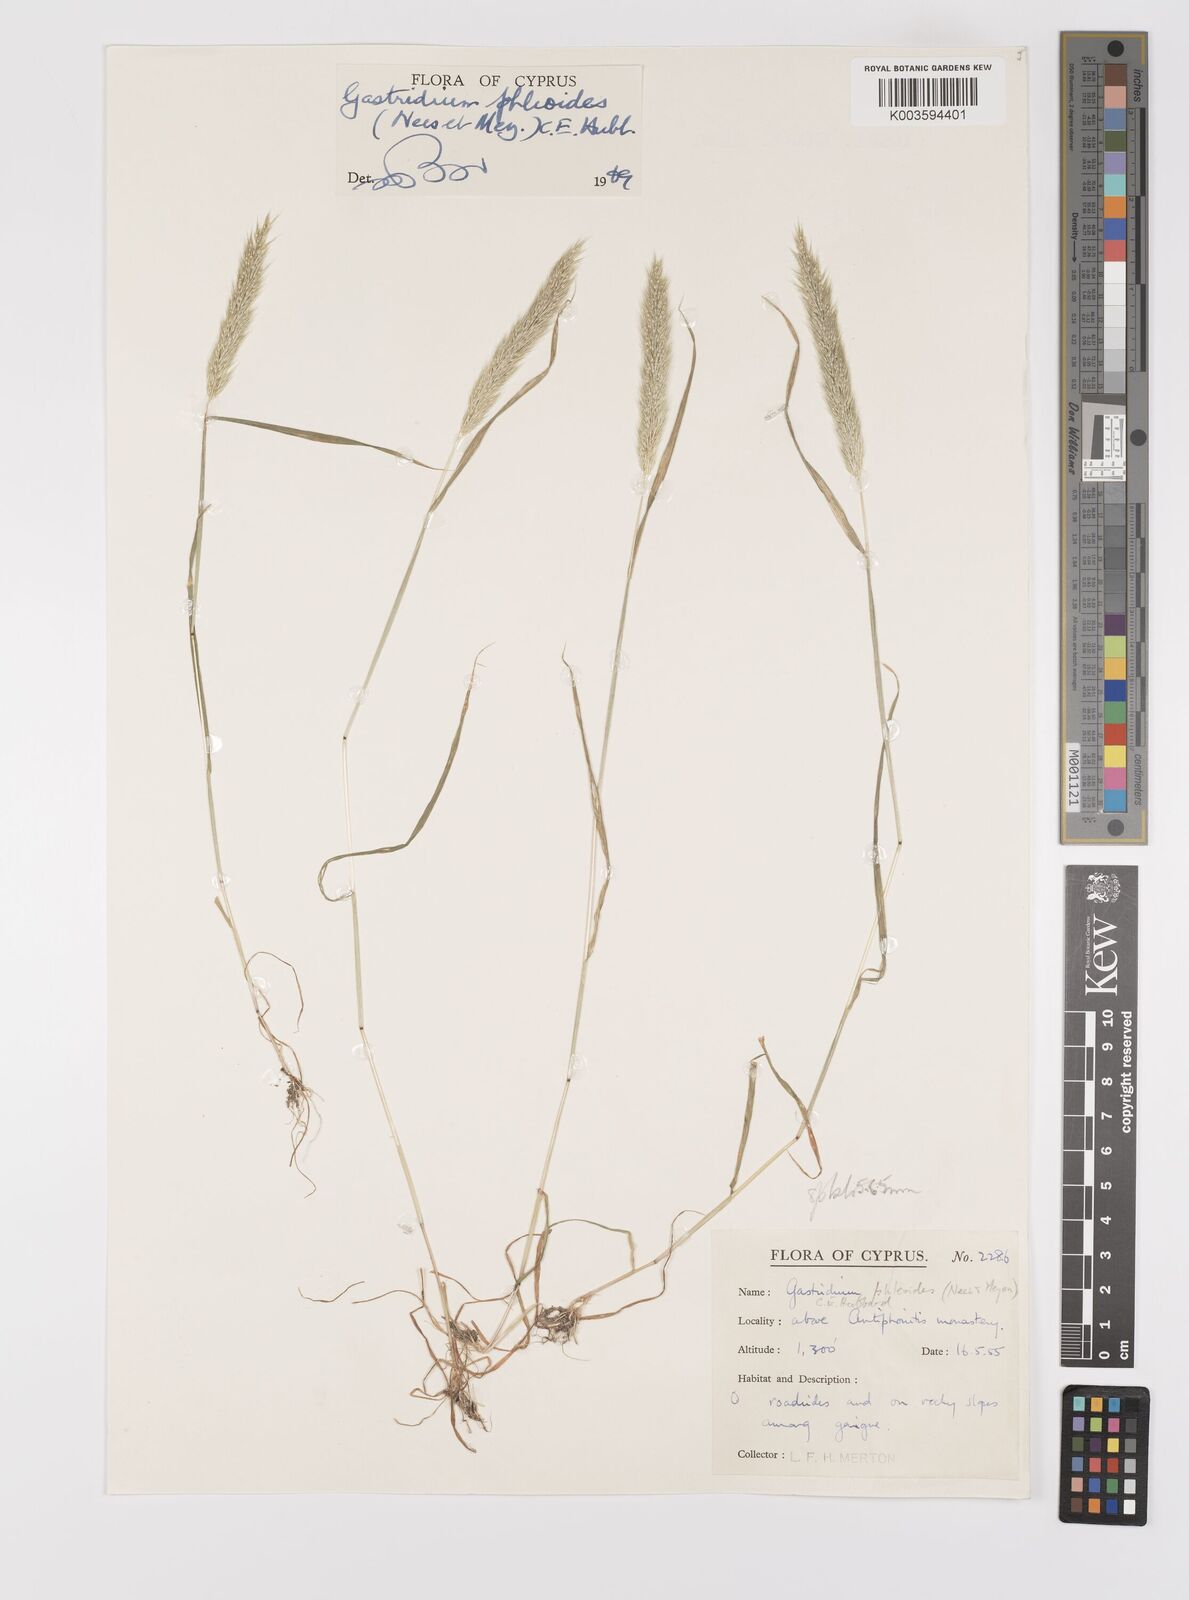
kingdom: Plantae
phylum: Tracheophyta
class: Liliopsida
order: Poales
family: Poaceae
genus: Gastridium
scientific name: Gastridium phleoides
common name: Nit grass
